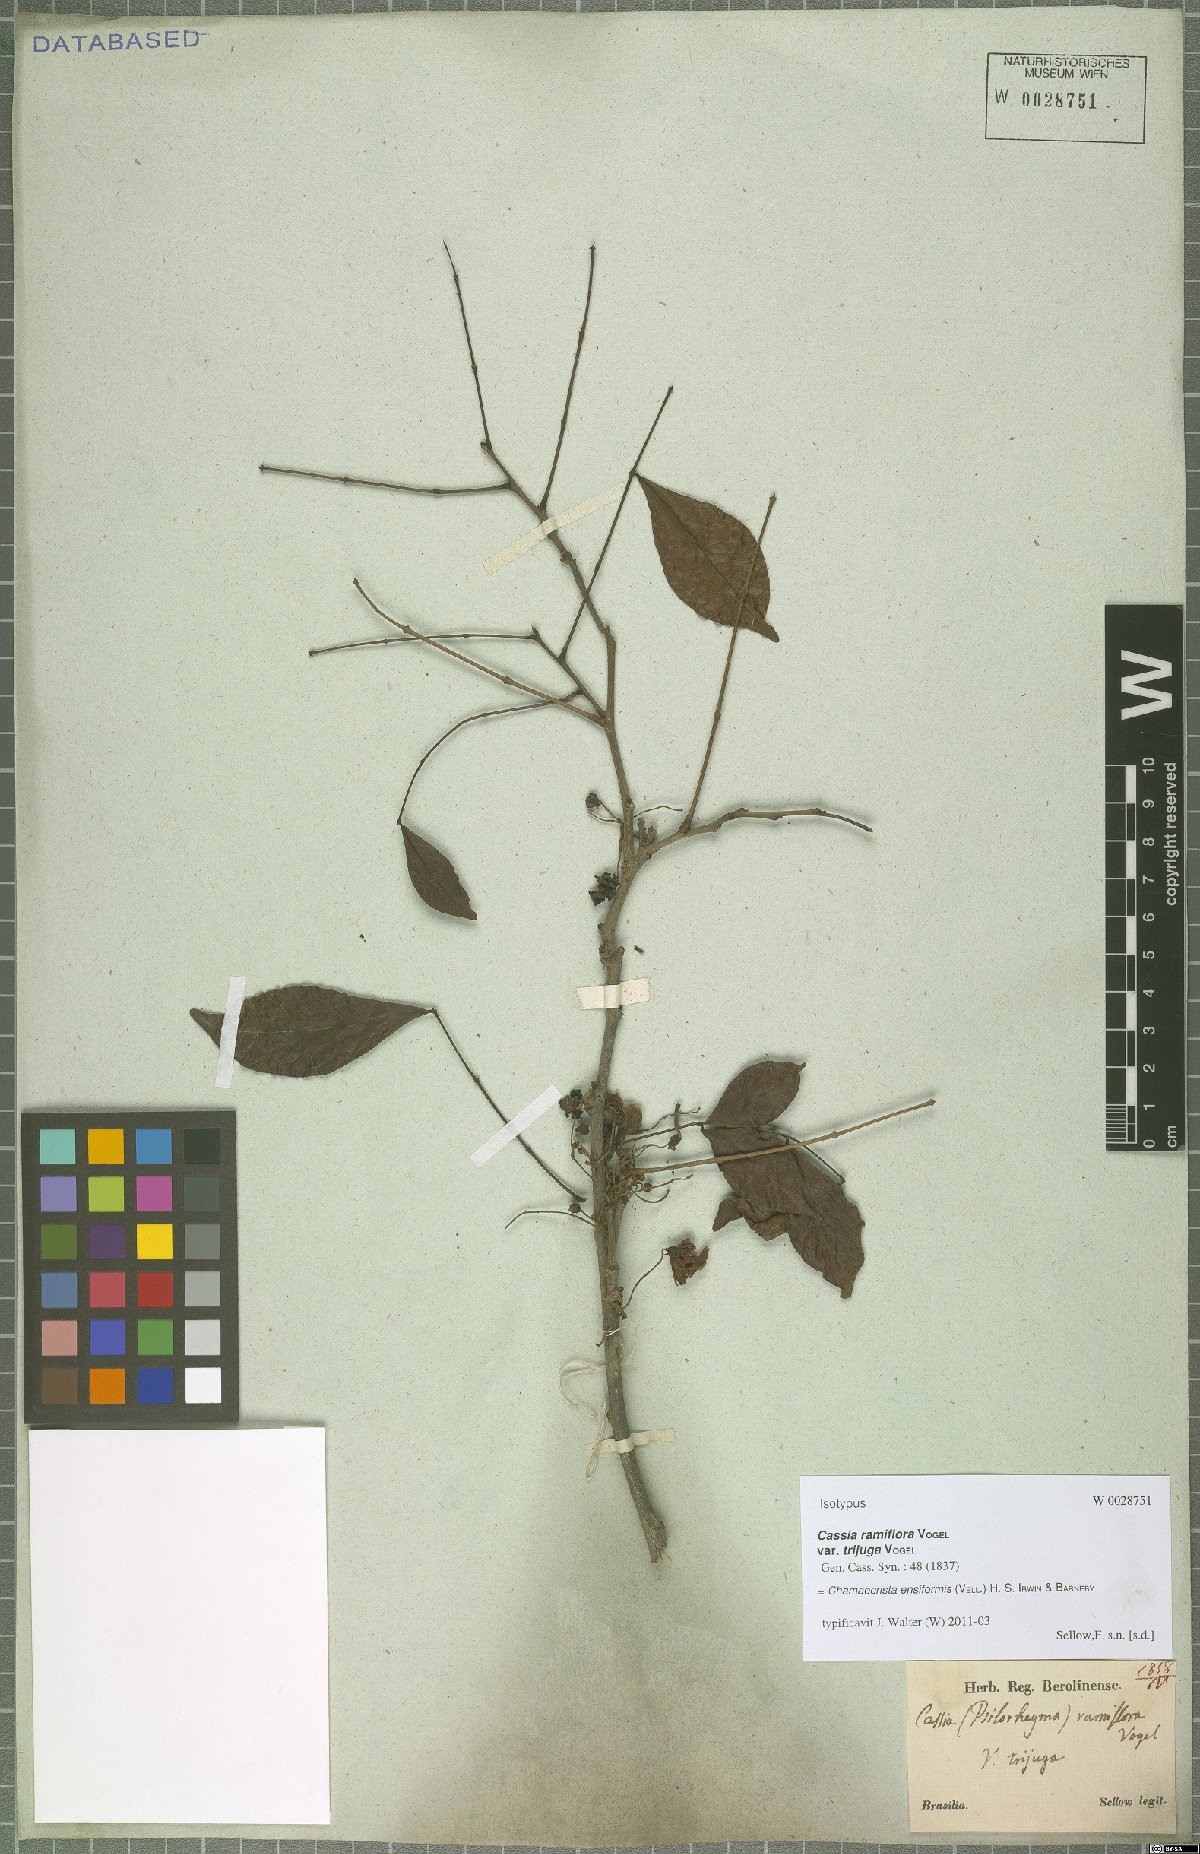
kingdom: Plantae
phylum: Tracheophyta
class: Magnoliopsida
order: Fabales
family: Fabaceae
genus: Chamaecrista
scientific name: Chamaecrista ensiformis
